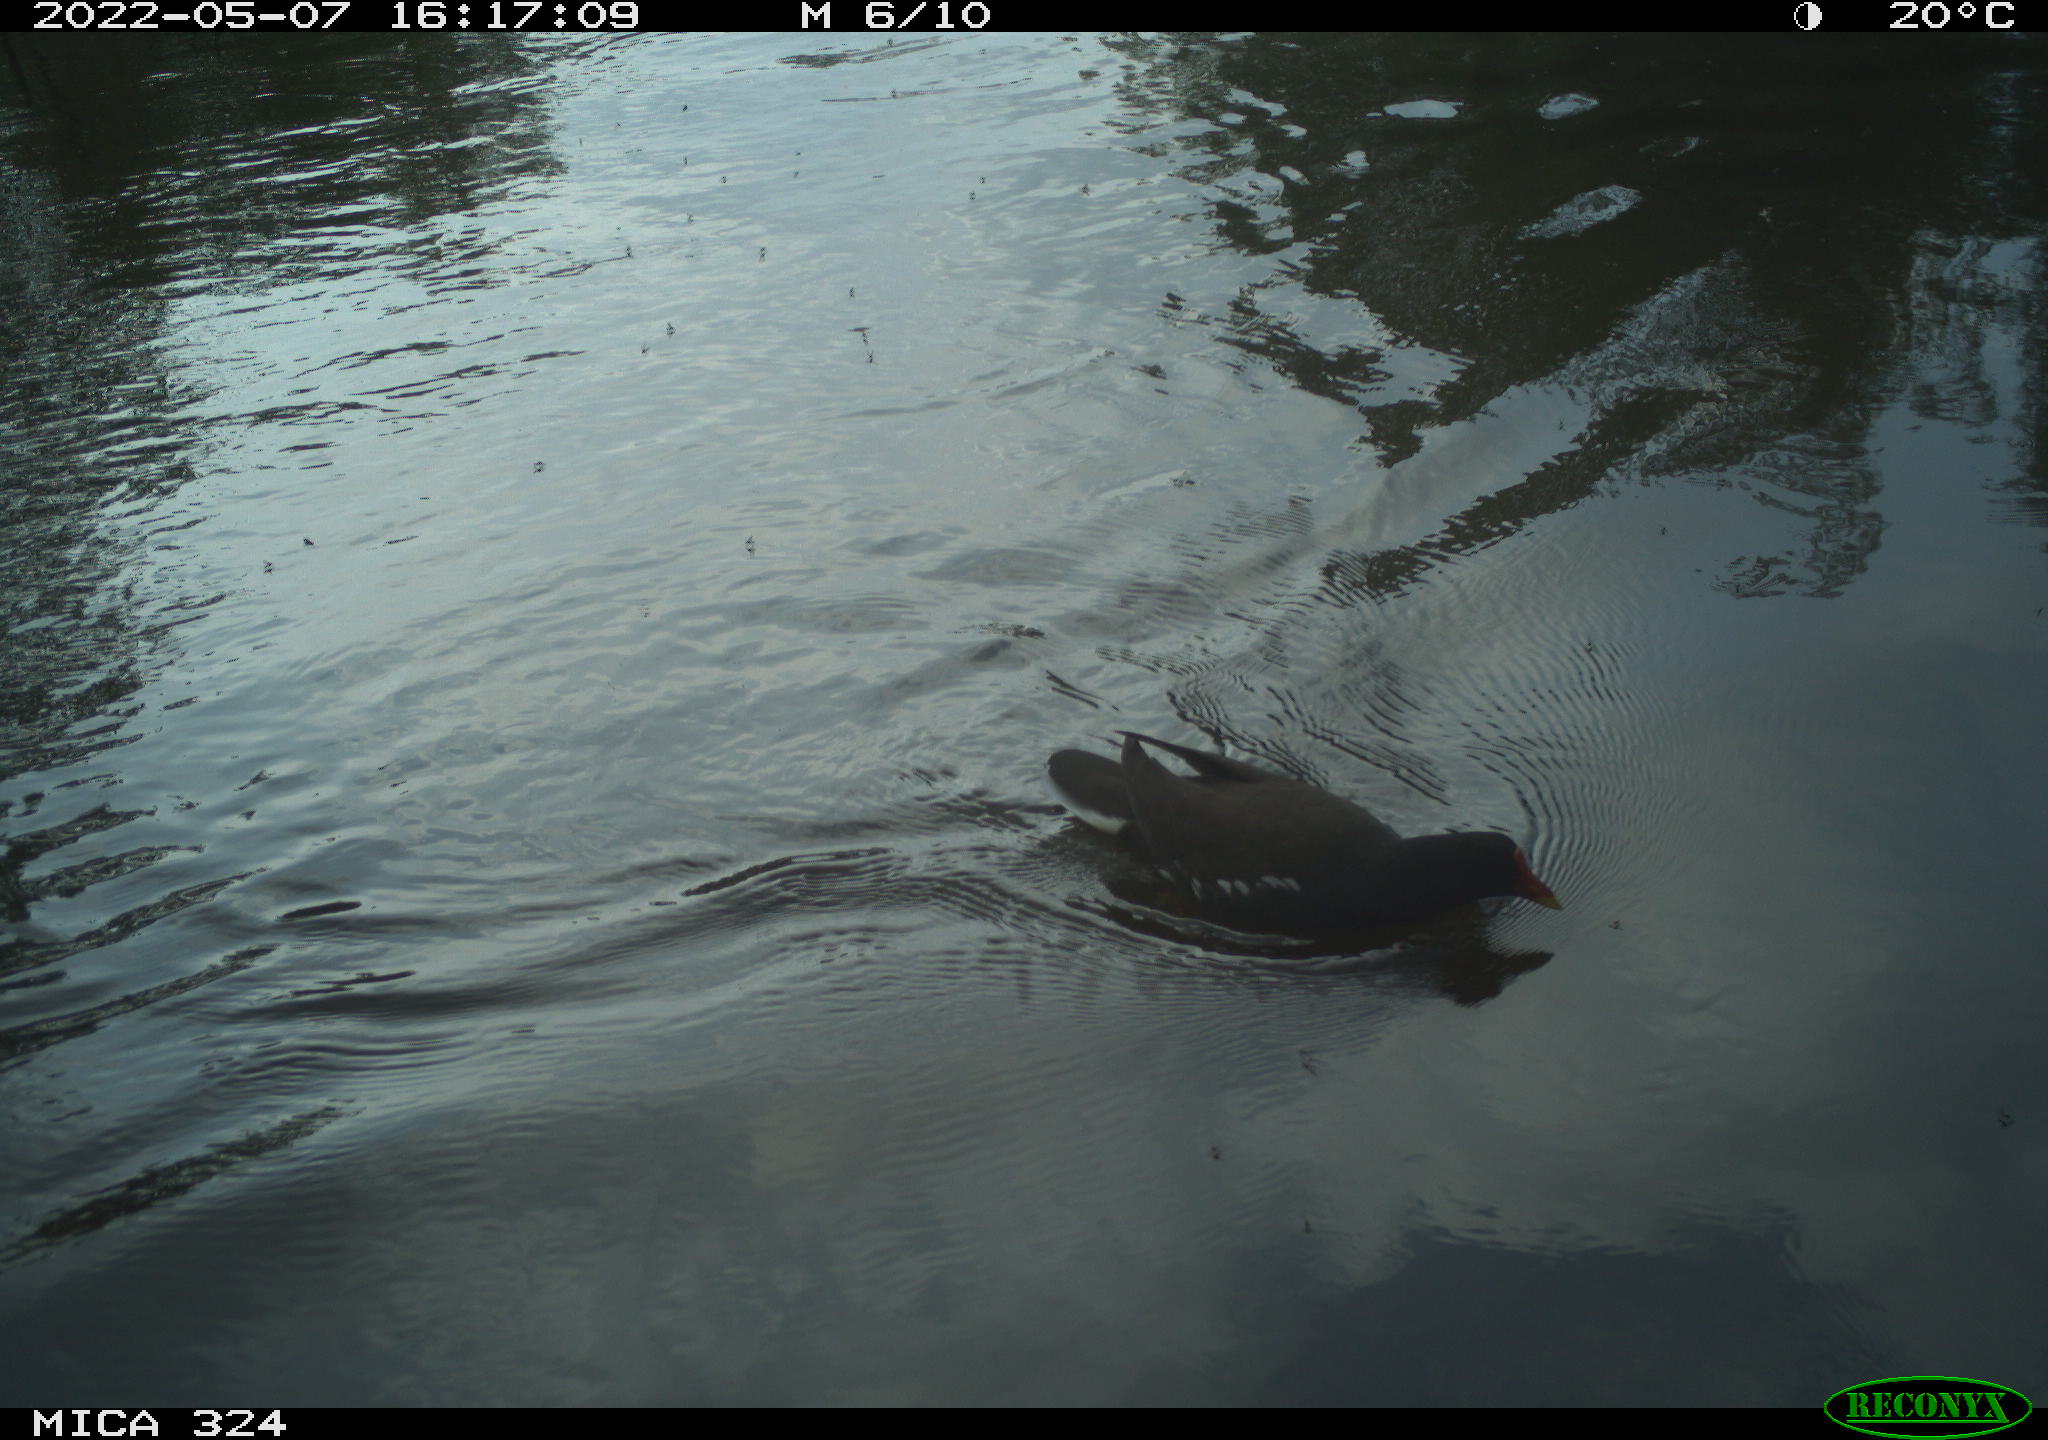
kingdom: Animalia
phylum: Chordata
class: Aves
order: Gruiformes
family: Rallidae
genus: Gallinula
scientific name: Gallinula chloropus
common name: Common moorhen
